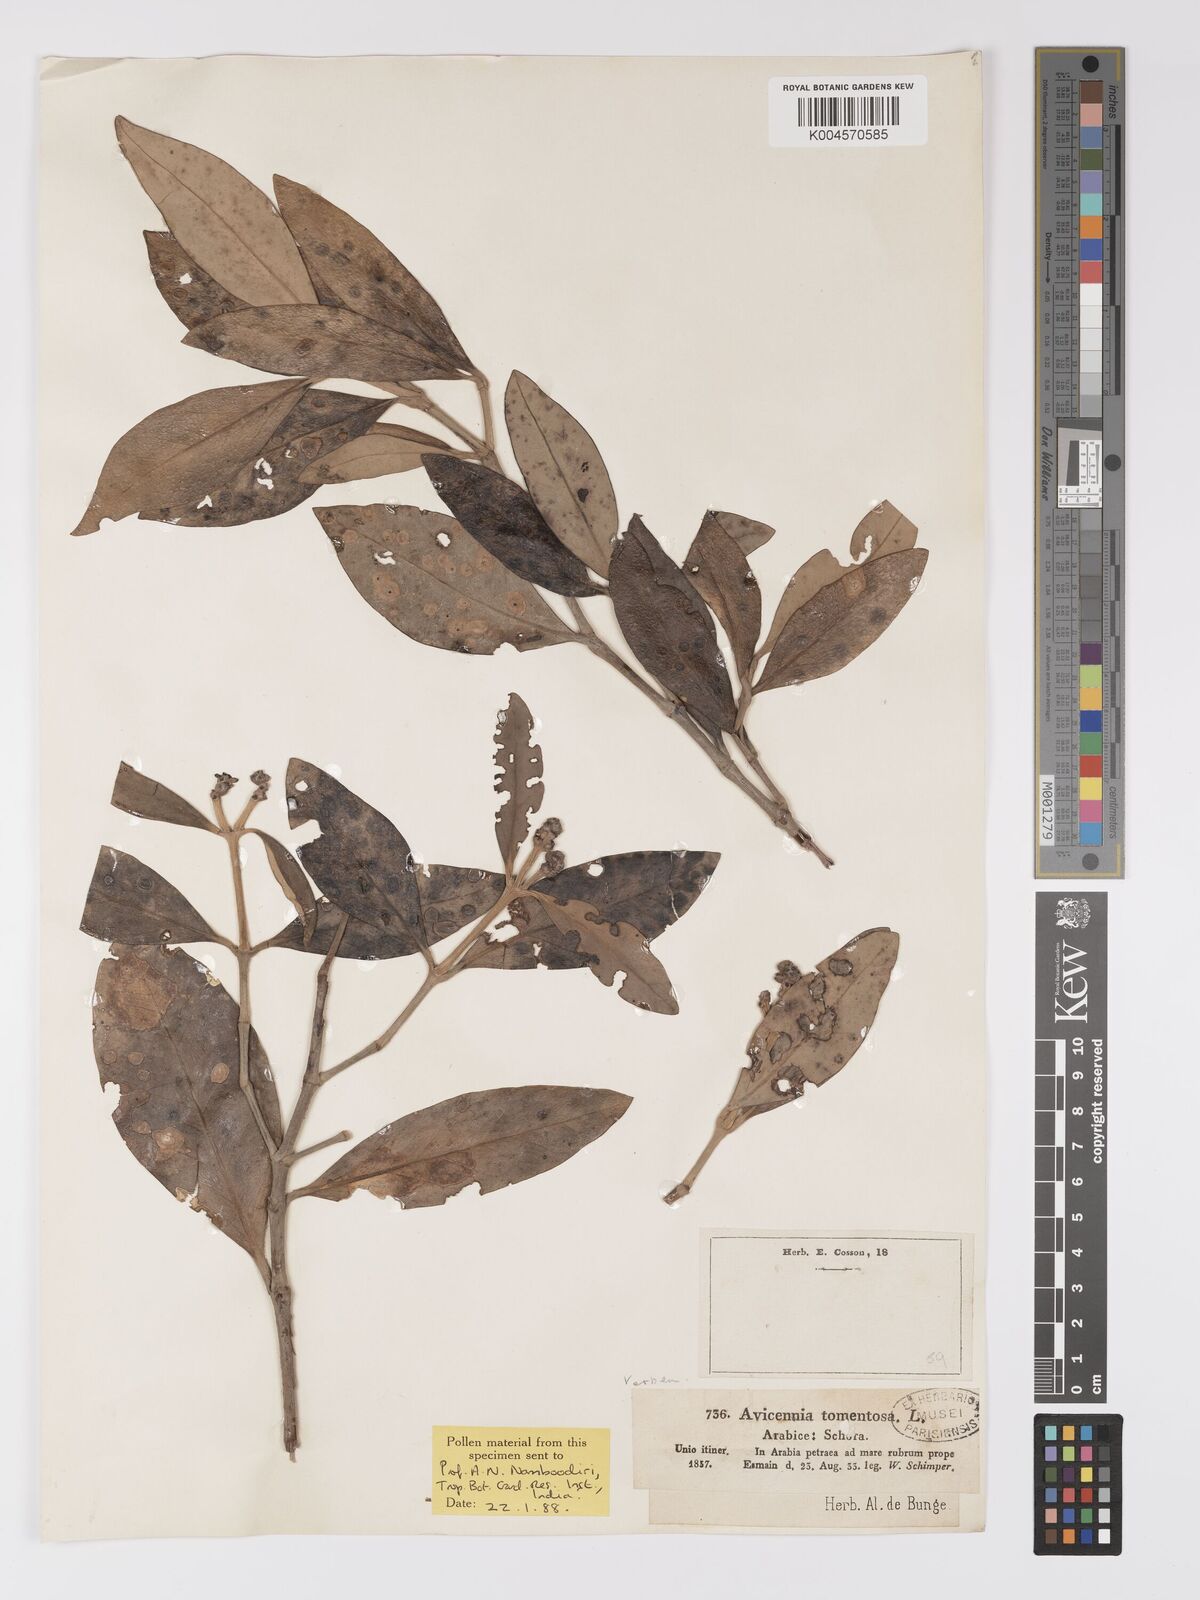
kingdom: Plantae
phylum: Tracheophyta
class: Magnoliopsida
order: Lamiales
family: Acanthaceae
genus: Avicennia
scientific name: Avicennia
